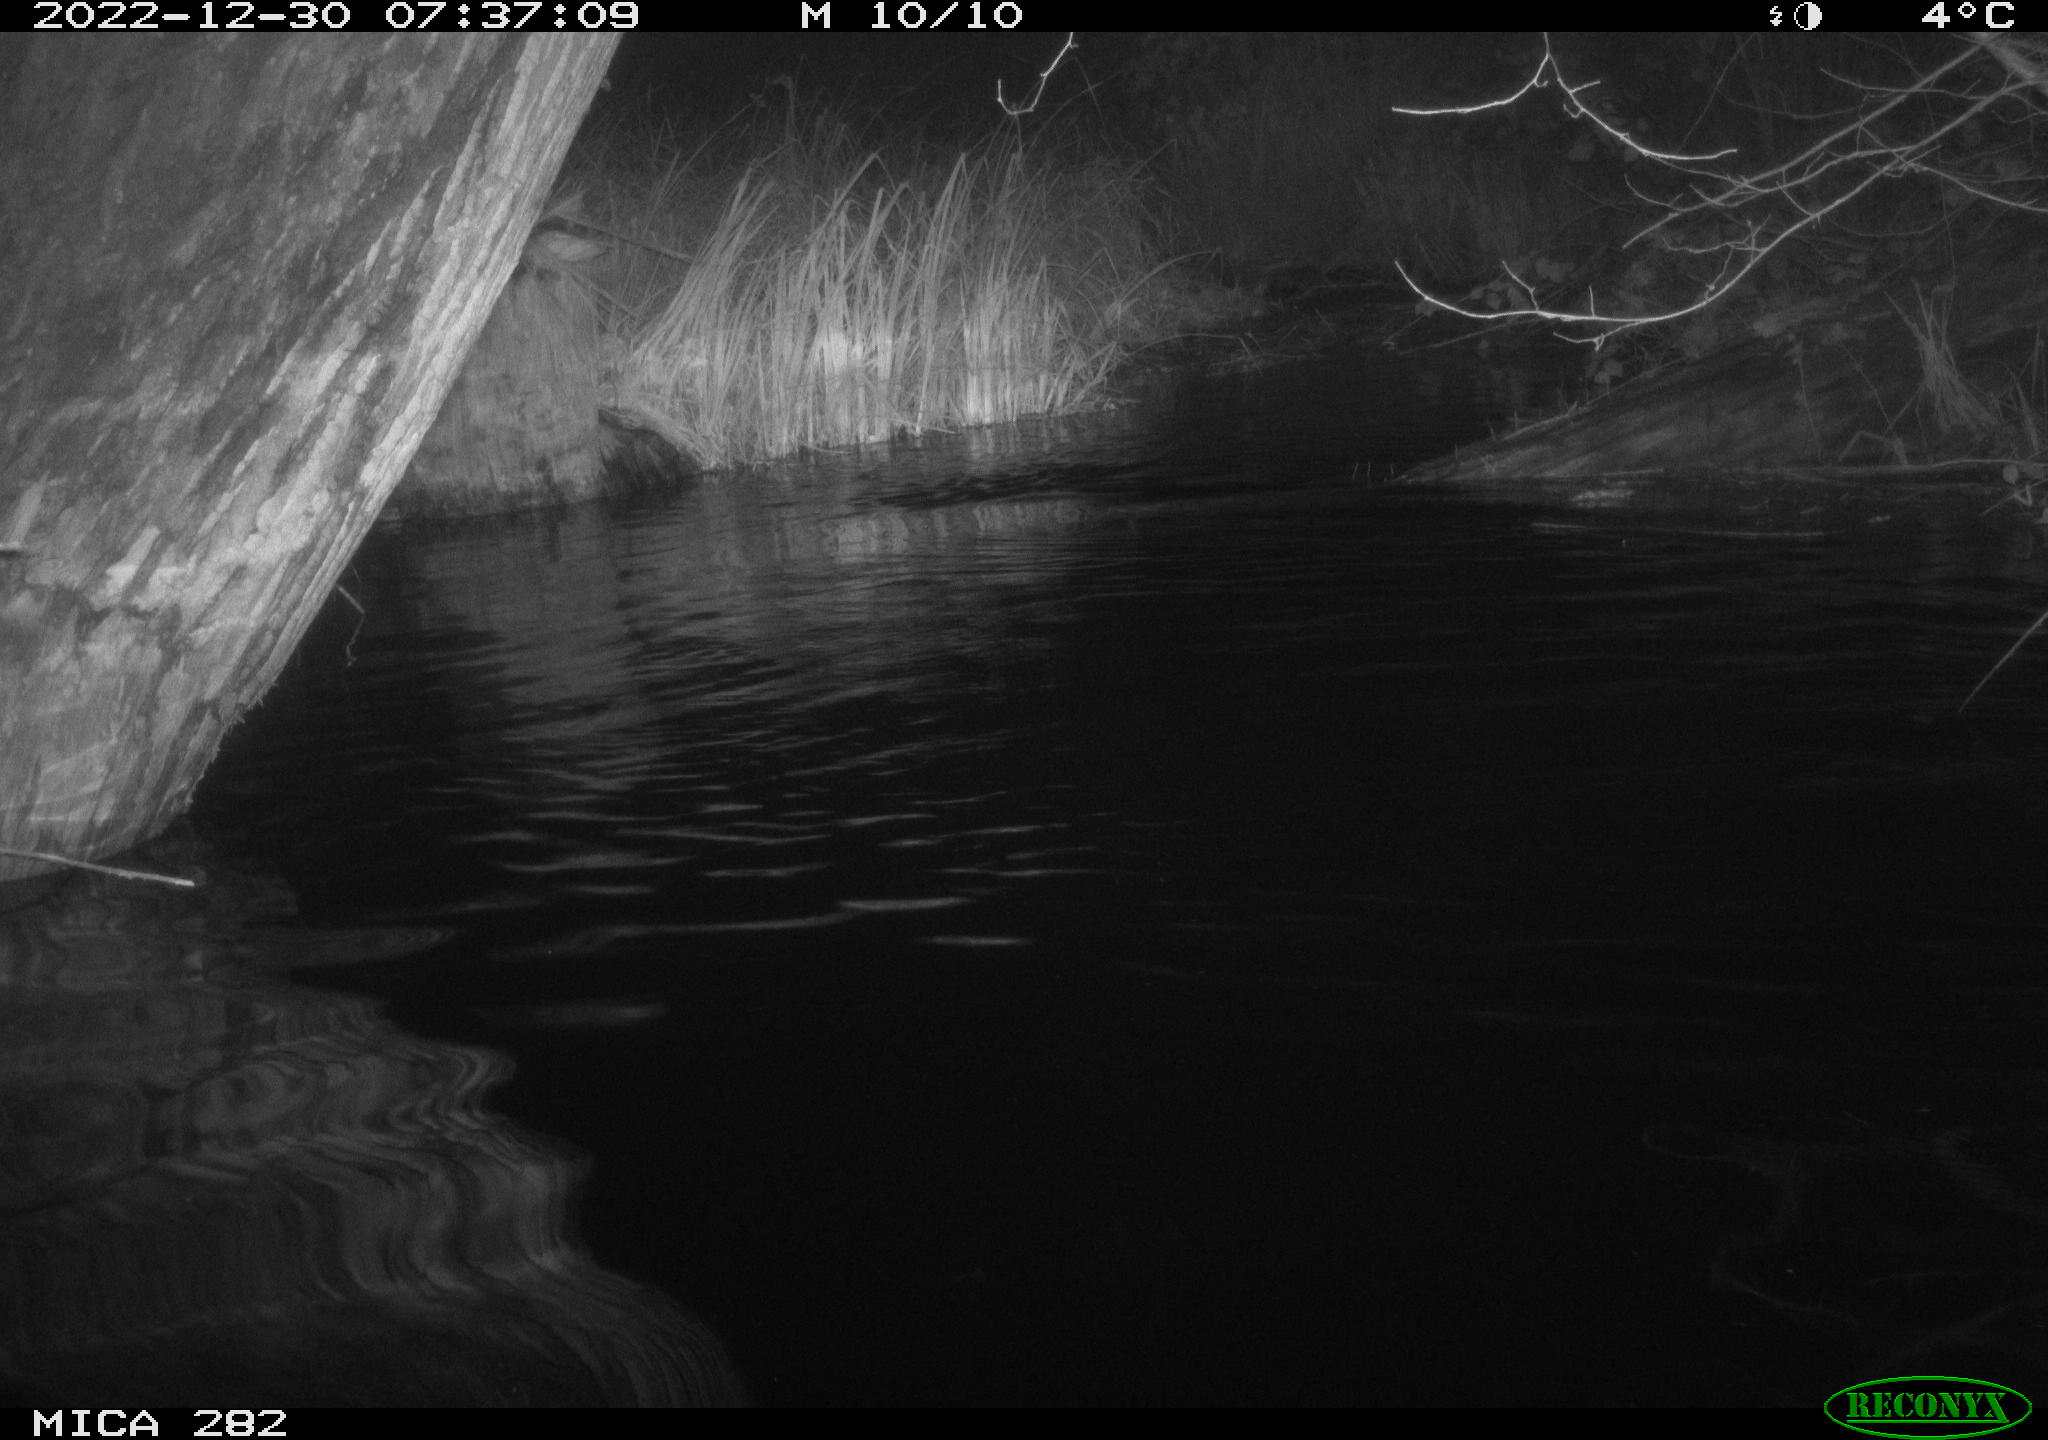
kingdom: Animalia
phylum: Chordata
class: Mammalia
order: Rodentia
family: Castoridae
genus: Castor
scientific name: Castor fiber
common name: Eurasian beaver
